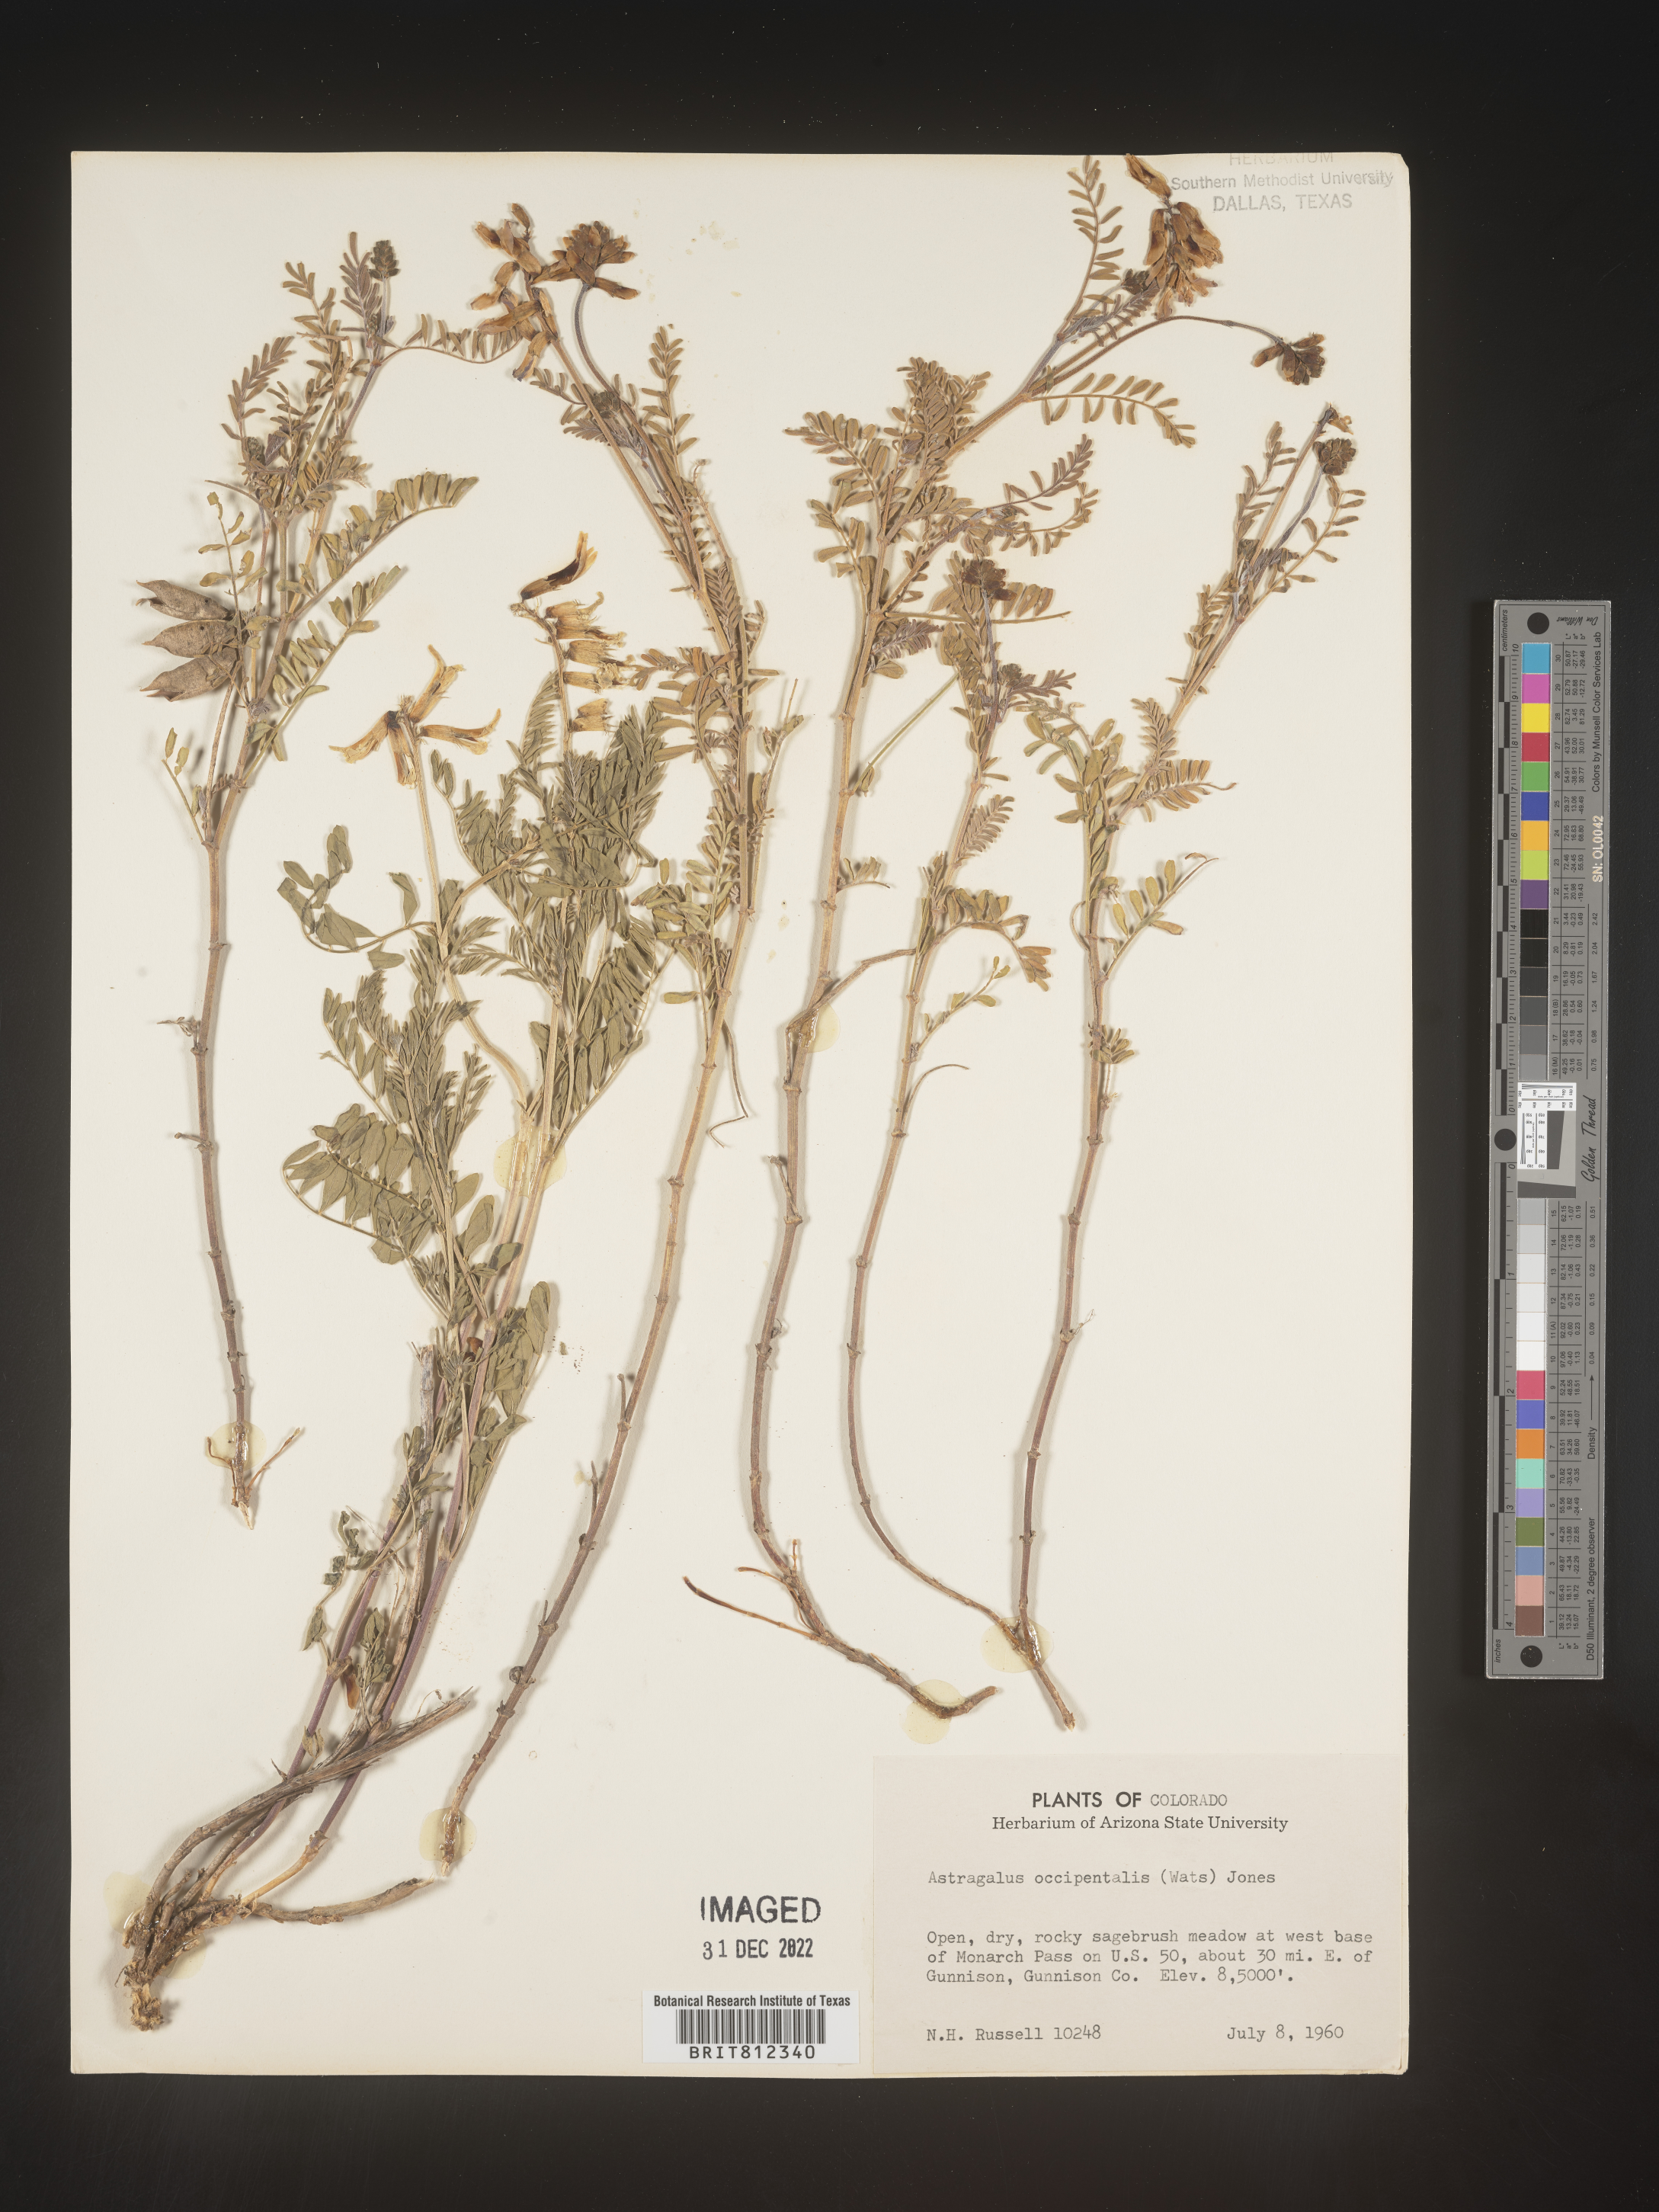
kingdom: Plantae
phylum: Tracheophyta
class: Magnoliopsida
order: Fabales
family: Fabaceae
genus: Astragalus
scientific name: Astragalus
